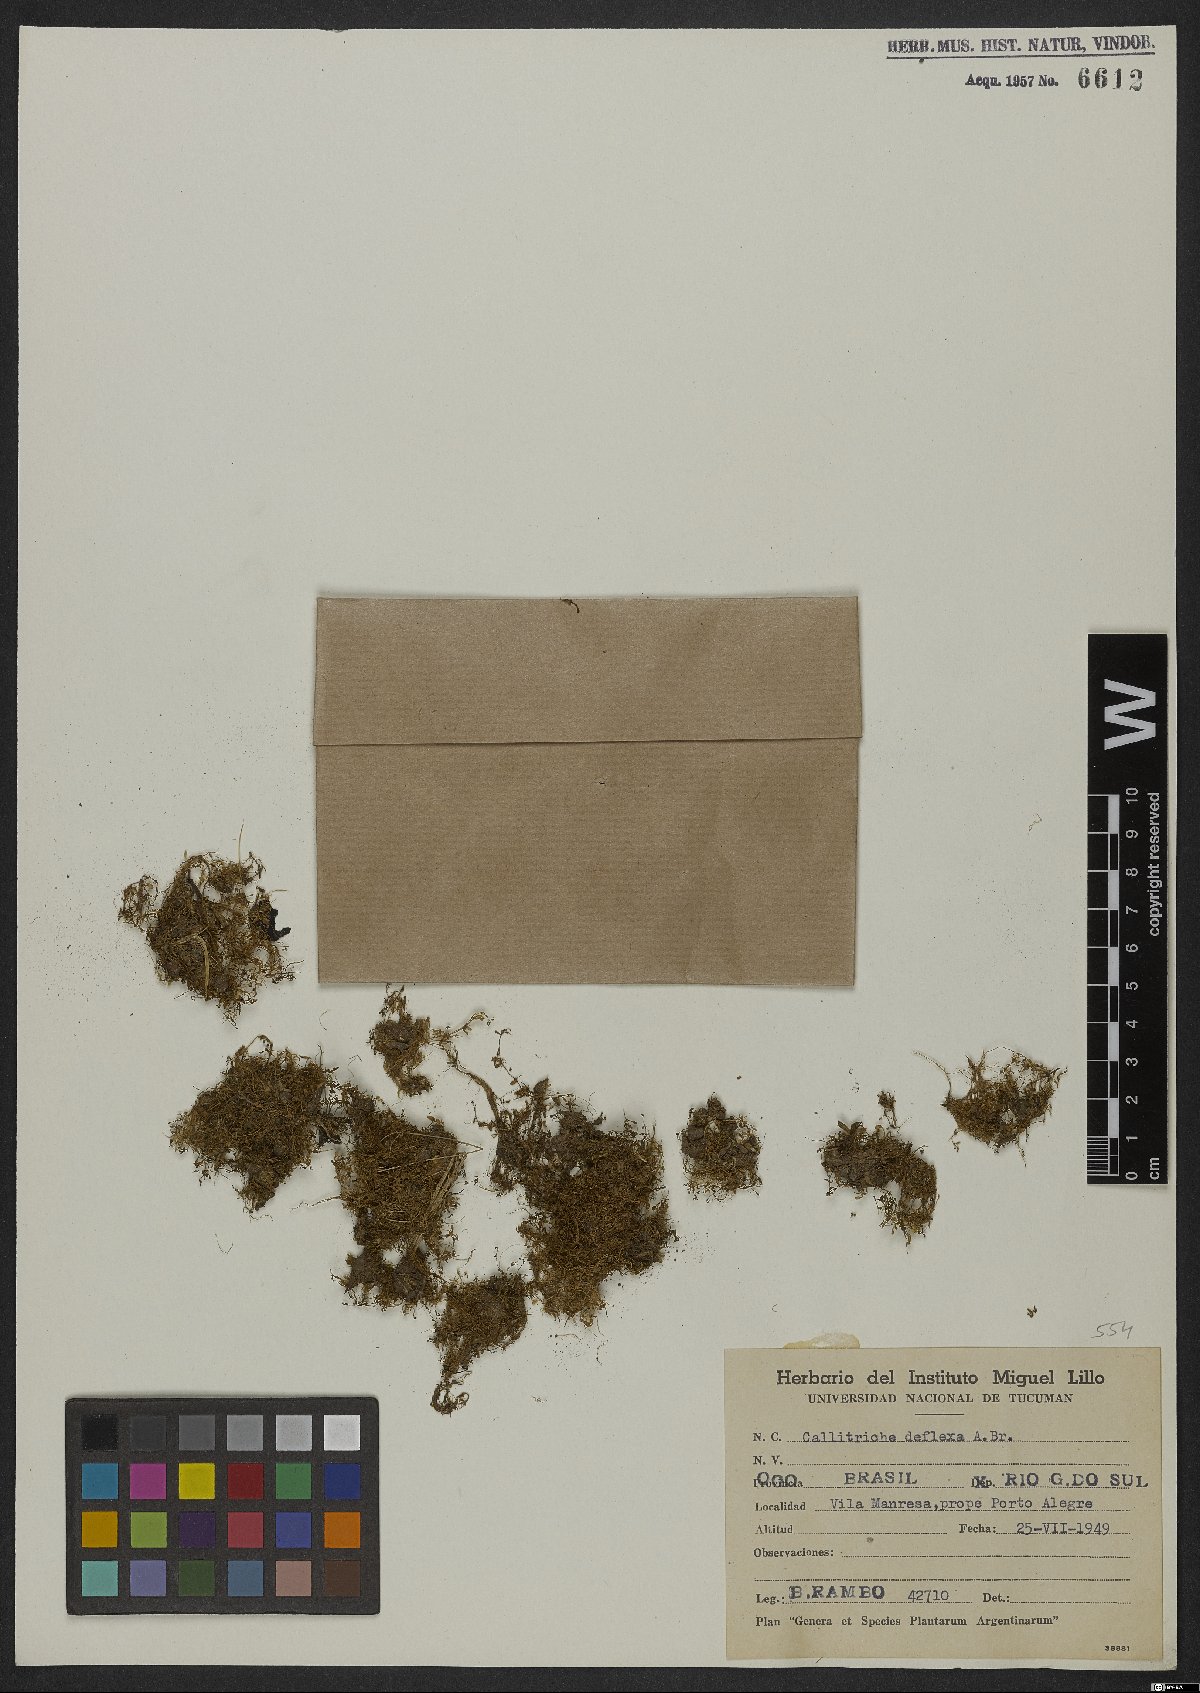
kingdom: Plantae
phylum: Tracheophyta
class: Magnoliopsida
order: Lamiales
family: Plantaginaceae
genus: Callitriche
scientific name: Callitriche deflexa
